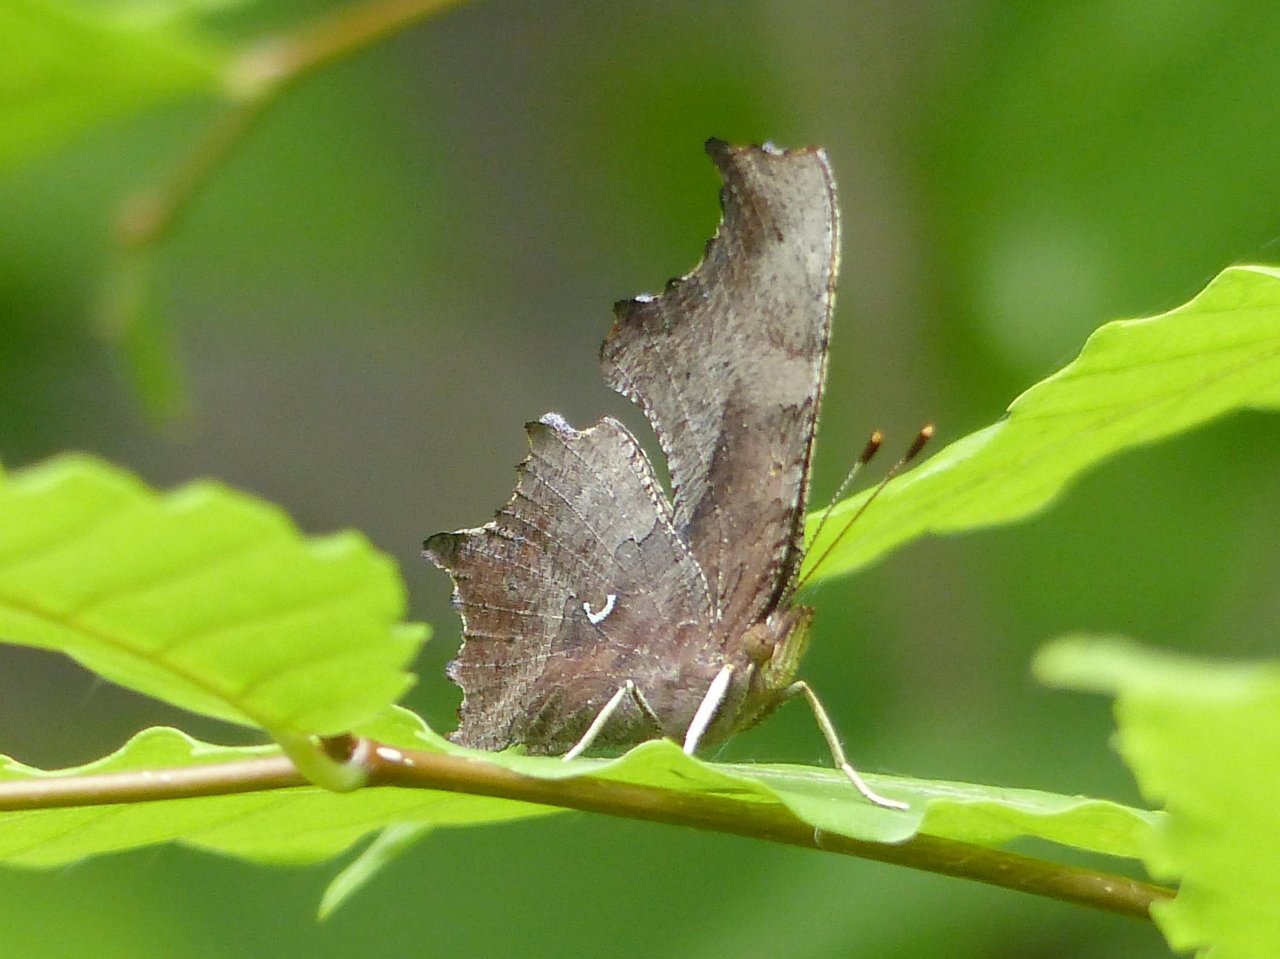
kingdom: Animalia
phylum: Arthropoda
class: Insecta
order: Lepidoptera
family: Nymphalidae
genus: Polygonia
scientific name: Polygonia comma
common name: Eastern Comma
